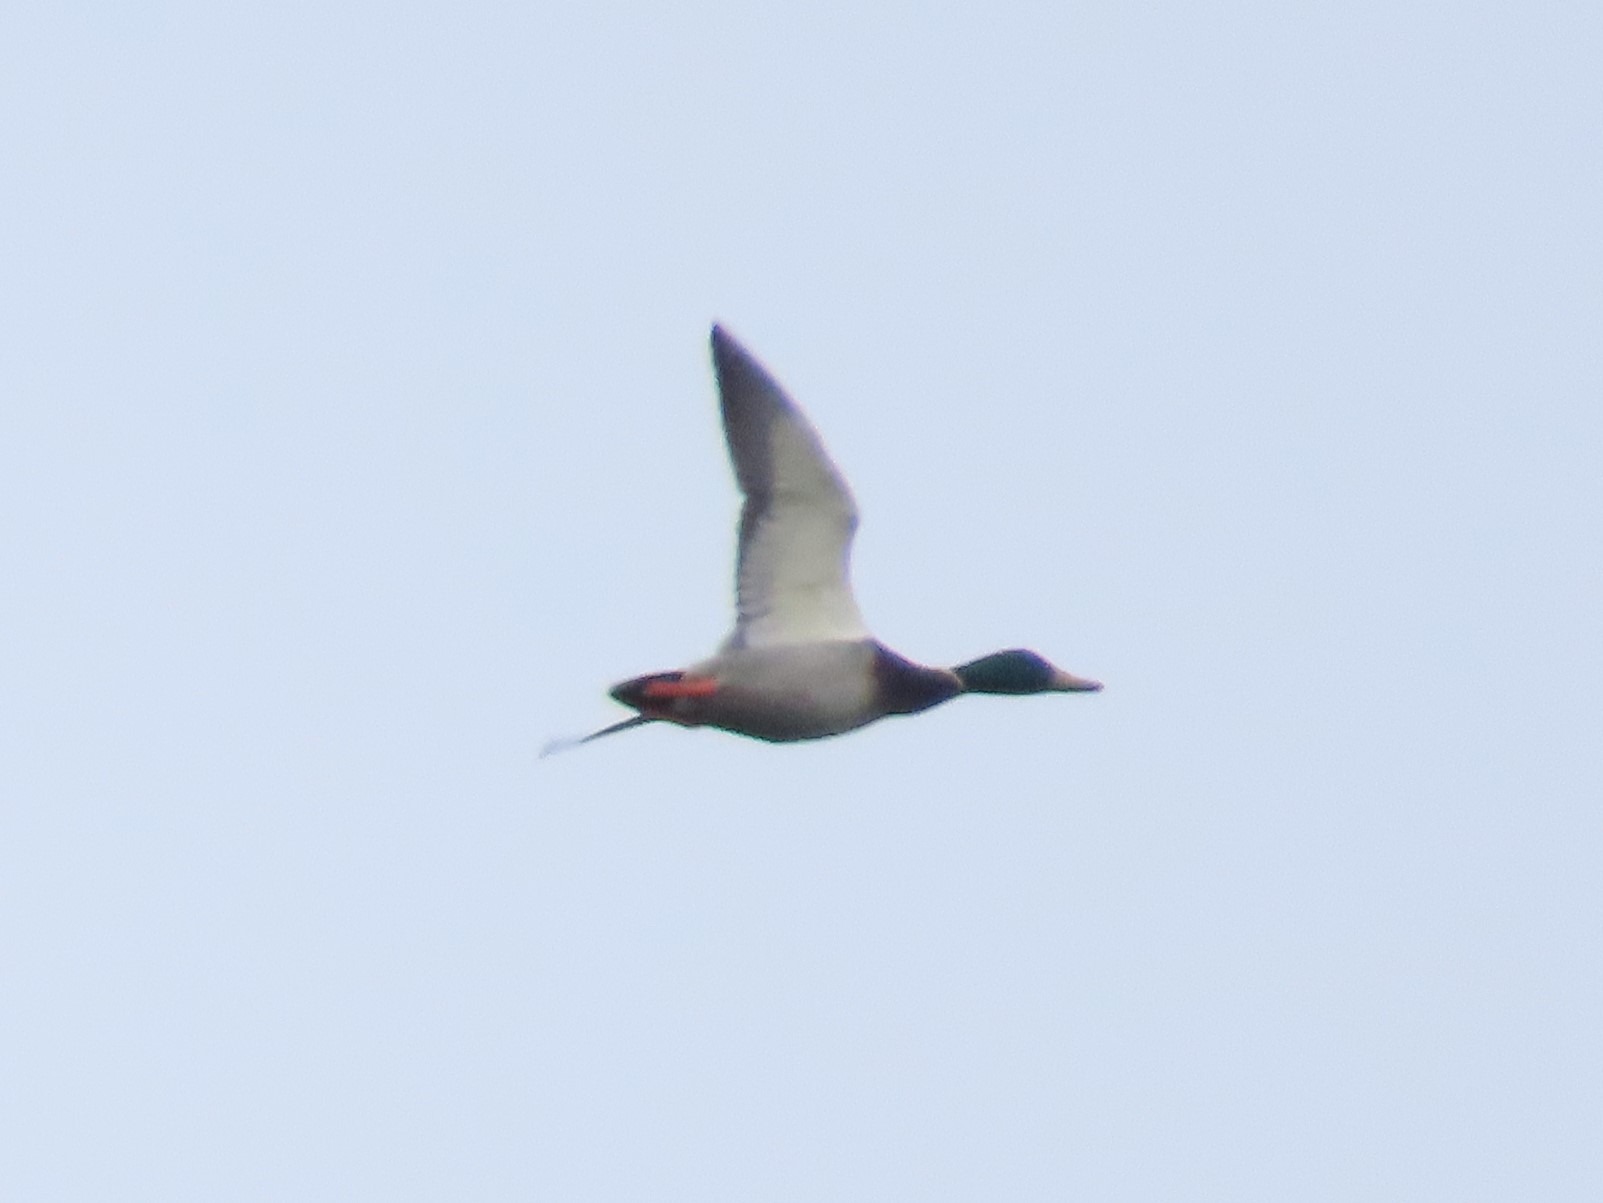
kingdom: Animalia
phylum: Chordata
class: Aves
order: Anseriformes
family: Anatidae
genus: Anas
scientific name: Anas platyrhynchos
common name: Gråand
